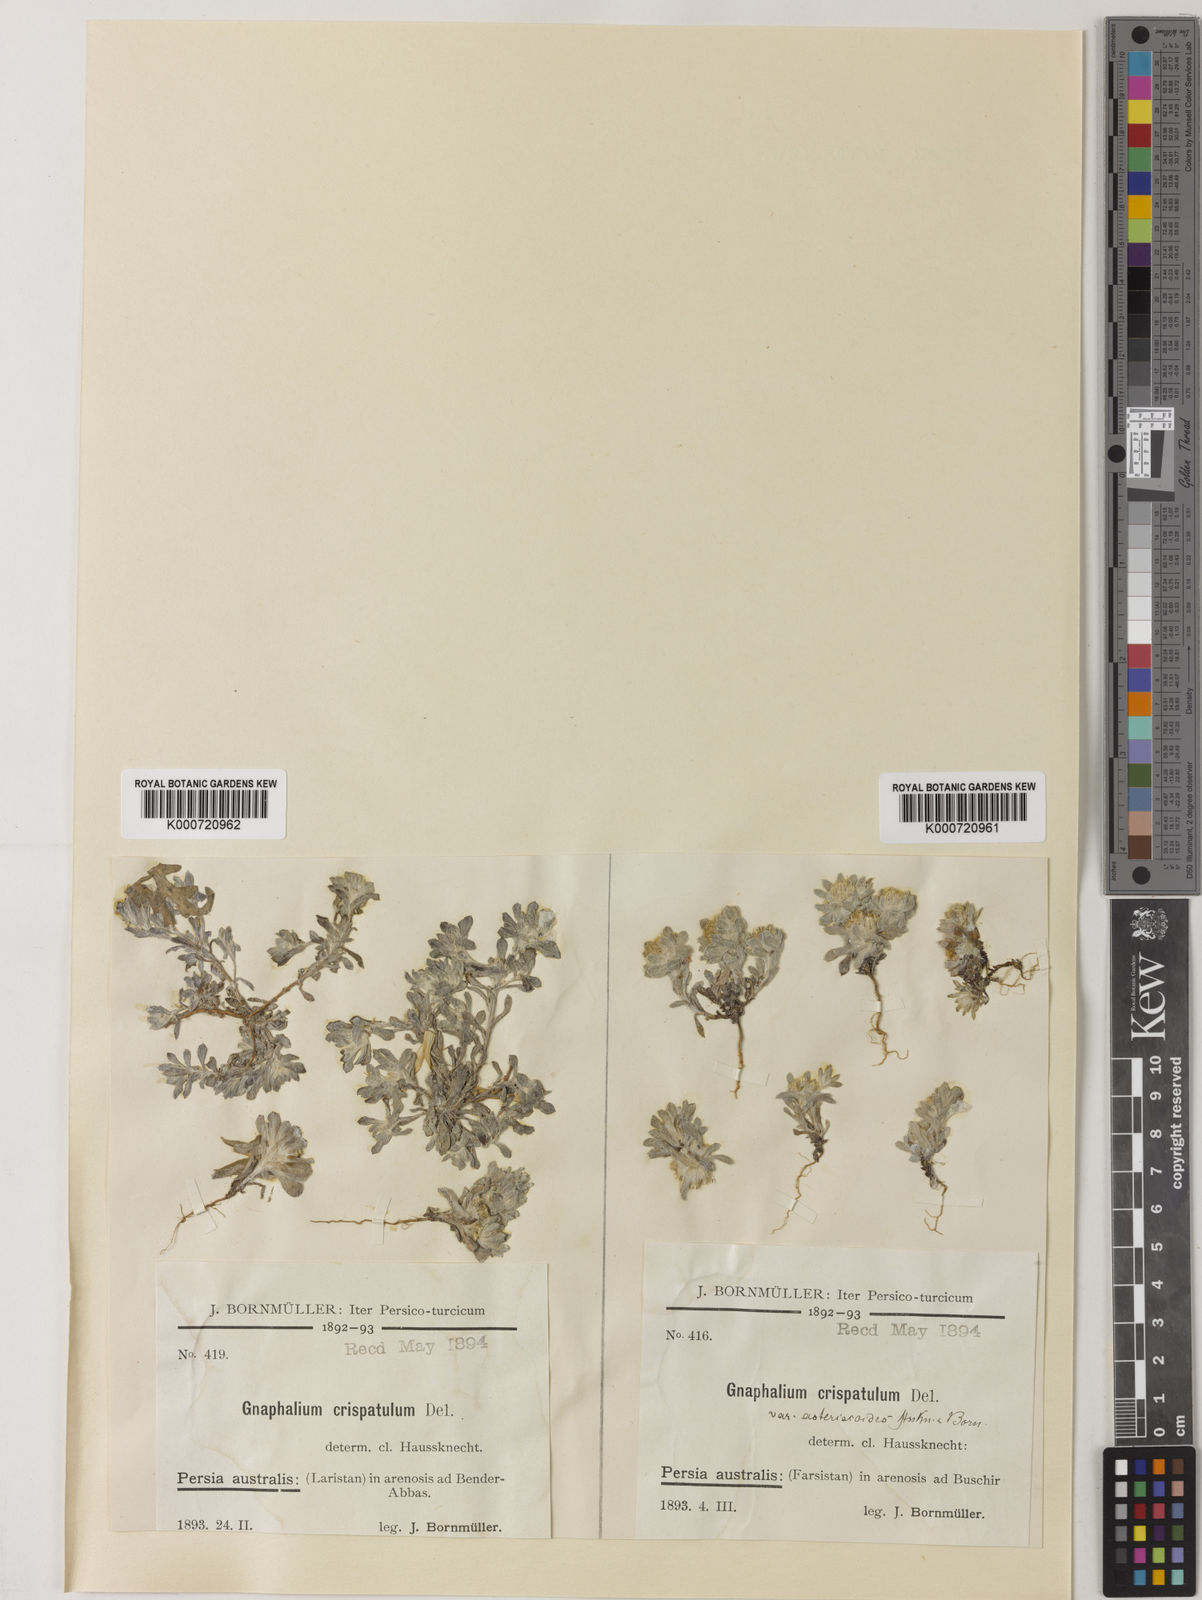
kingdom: Plantae
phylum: Tracheophyta
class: Magnoliopsida
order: Asterales
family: Asteraceae
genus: Gnomophalium
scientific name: Gnomophalium pulvinatum
